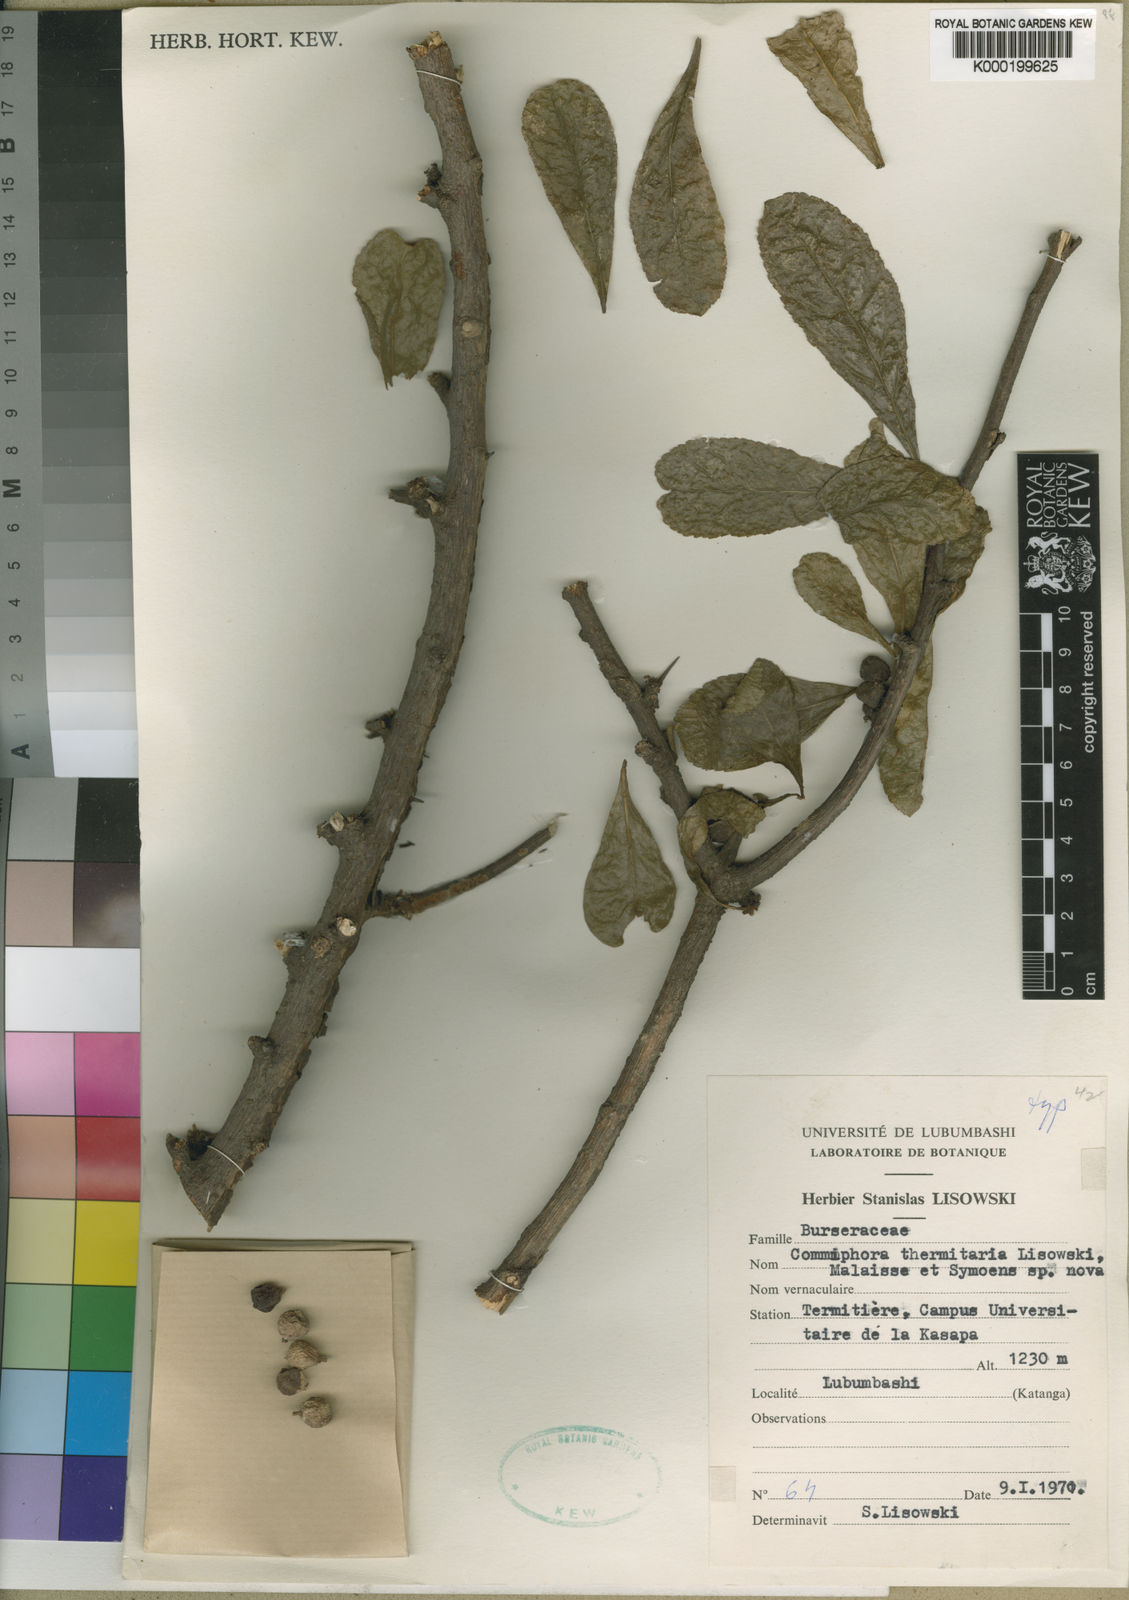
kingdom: Plantae
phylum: Tracheophyta
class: Magnoliopsida
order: Sapindales
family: Burseraceae
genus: Commiphora
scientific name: Commiphora glandulosa
